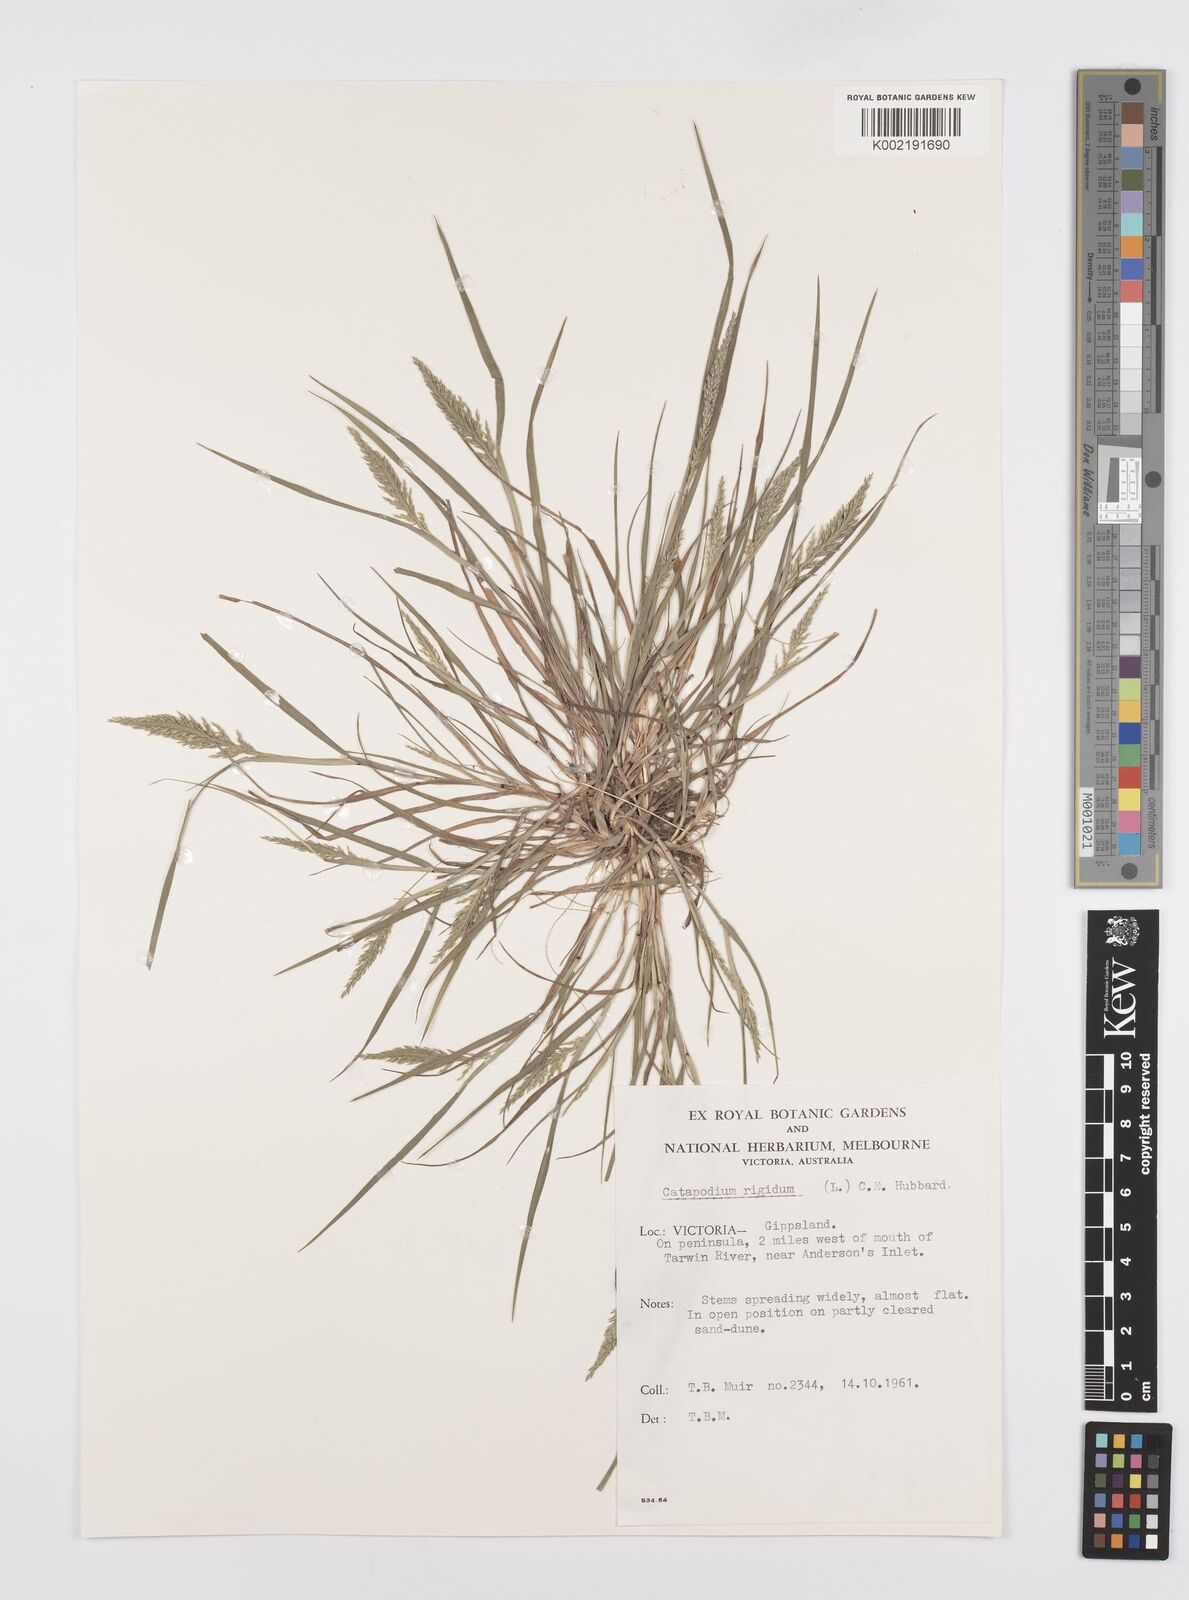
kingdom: Plantae
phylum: Tracheophyta
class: Liliopsida
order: Poales
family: Poaceae
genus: Catapodium
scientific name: Catapodium rigidum
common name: Fern-grass
